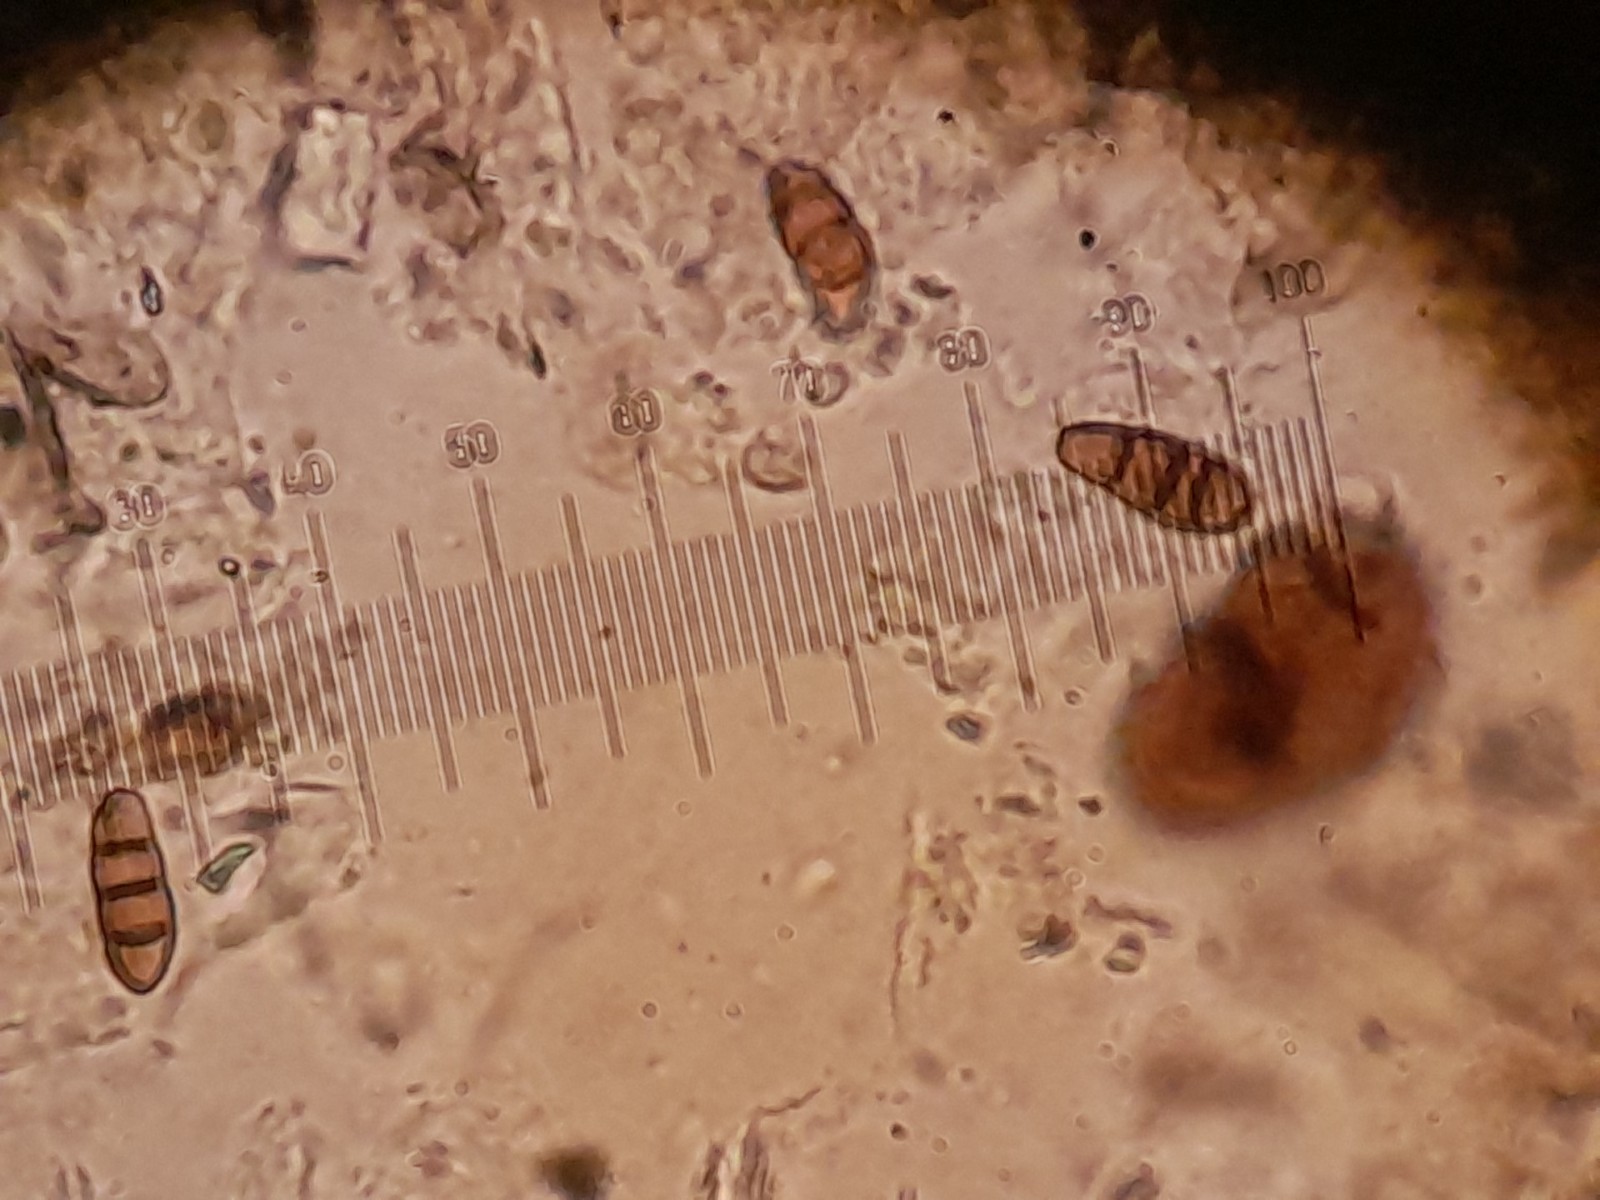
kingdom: Fungi
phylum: Ascomycota
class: Dothideomycetes
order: Pleosporales
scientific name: Pleosporales
